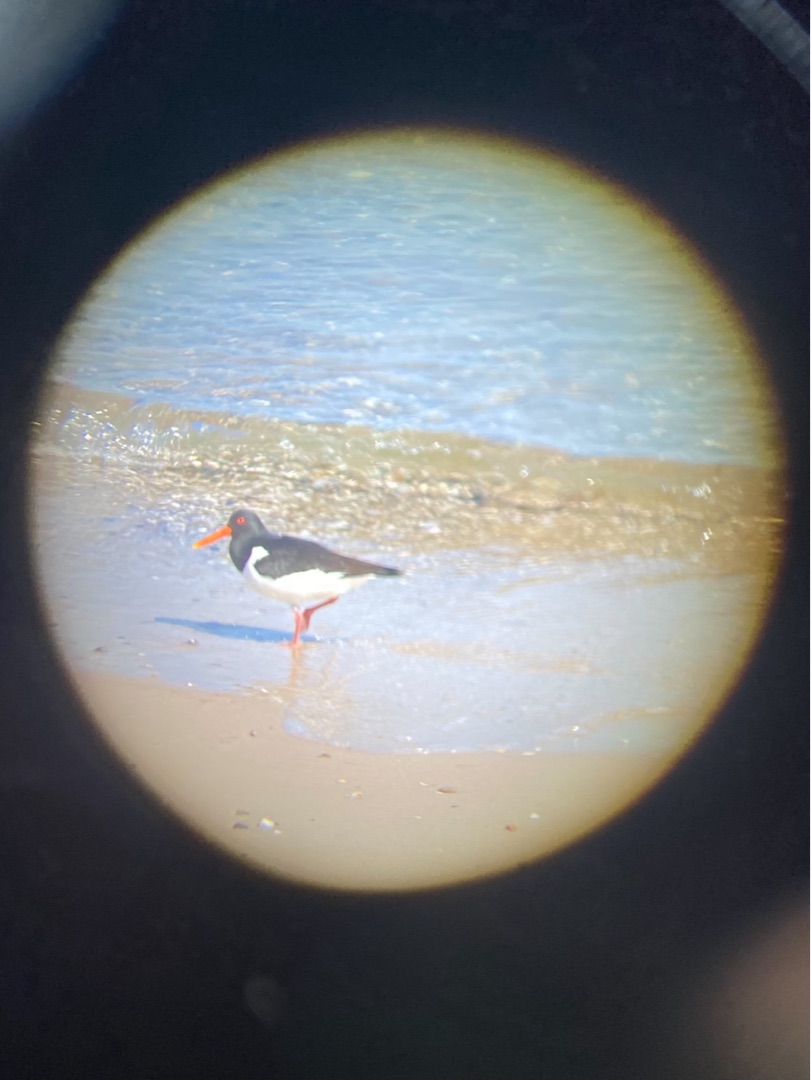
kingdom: Animalia
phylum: Chordata
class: Aves
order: Charadriiformes
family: Haematopodidae
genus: Haematopus
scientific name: Haematopus ostralegus
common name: Strandskade
